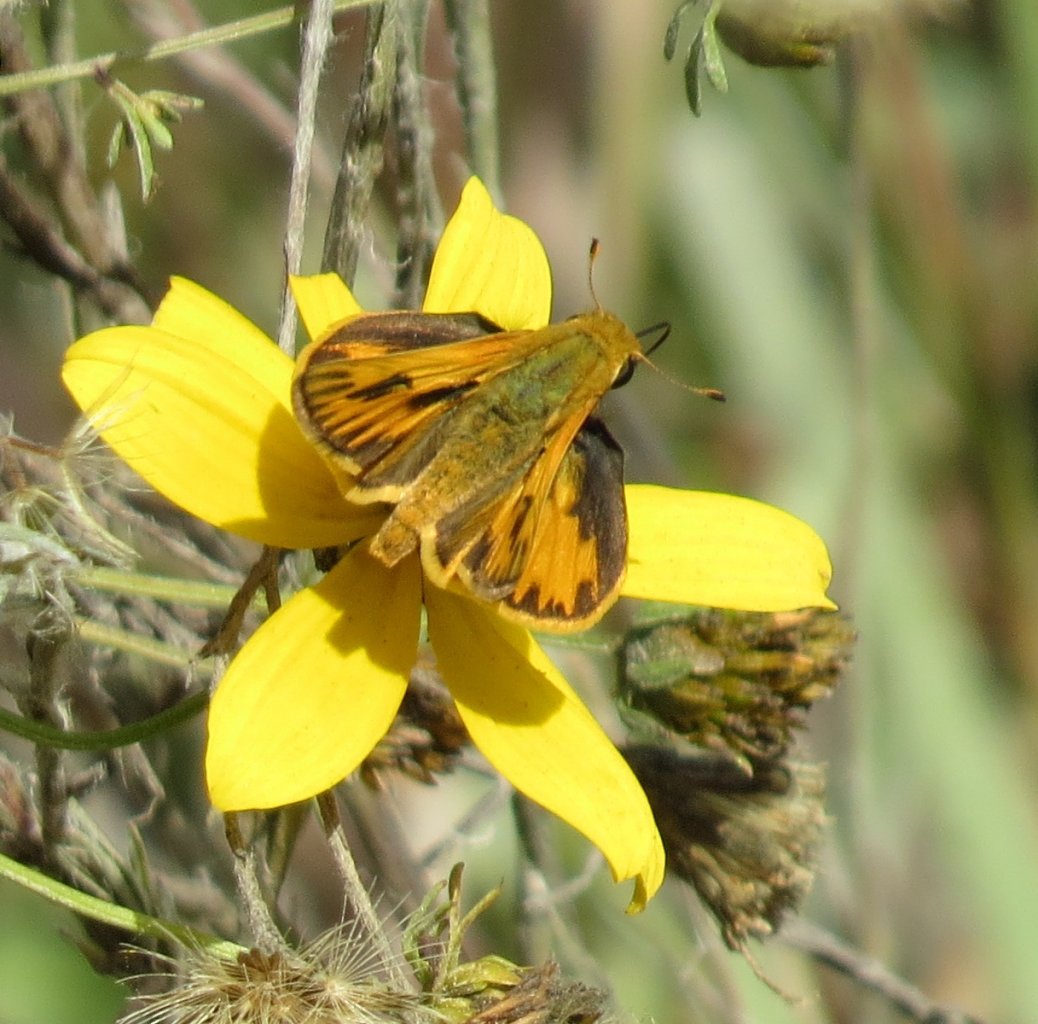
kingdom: Animalia
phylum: Arthropoda
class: Insecta
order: Lepidoptera
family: Hesperiidae
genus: Hylephila
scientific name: Hylephila phyleus
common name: Fiery Skipper
